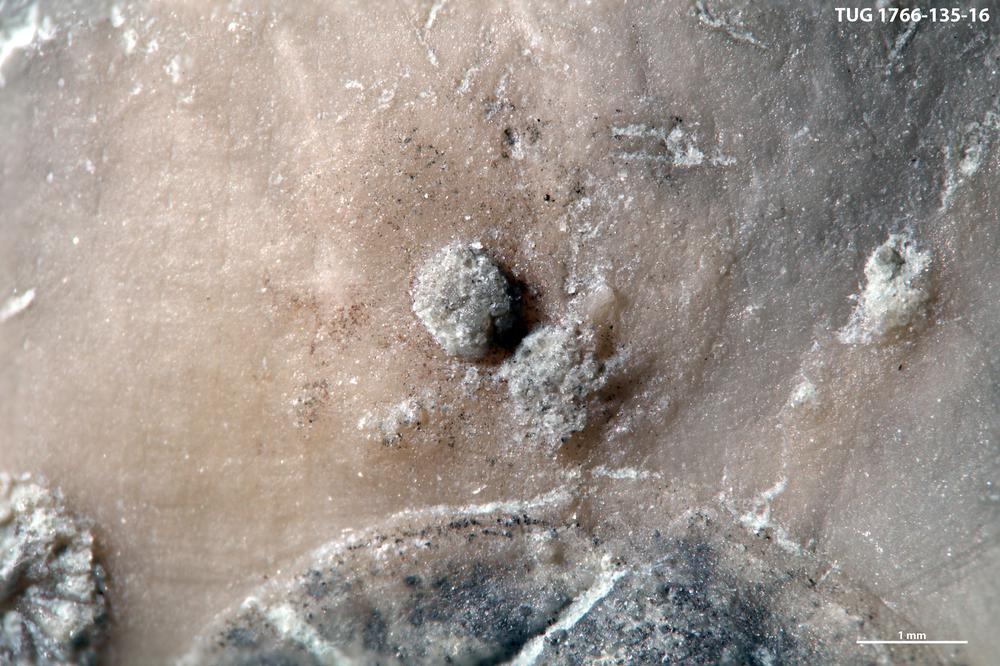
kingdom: Animalia
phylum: Brachiopoda
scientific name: Brachiopoda
